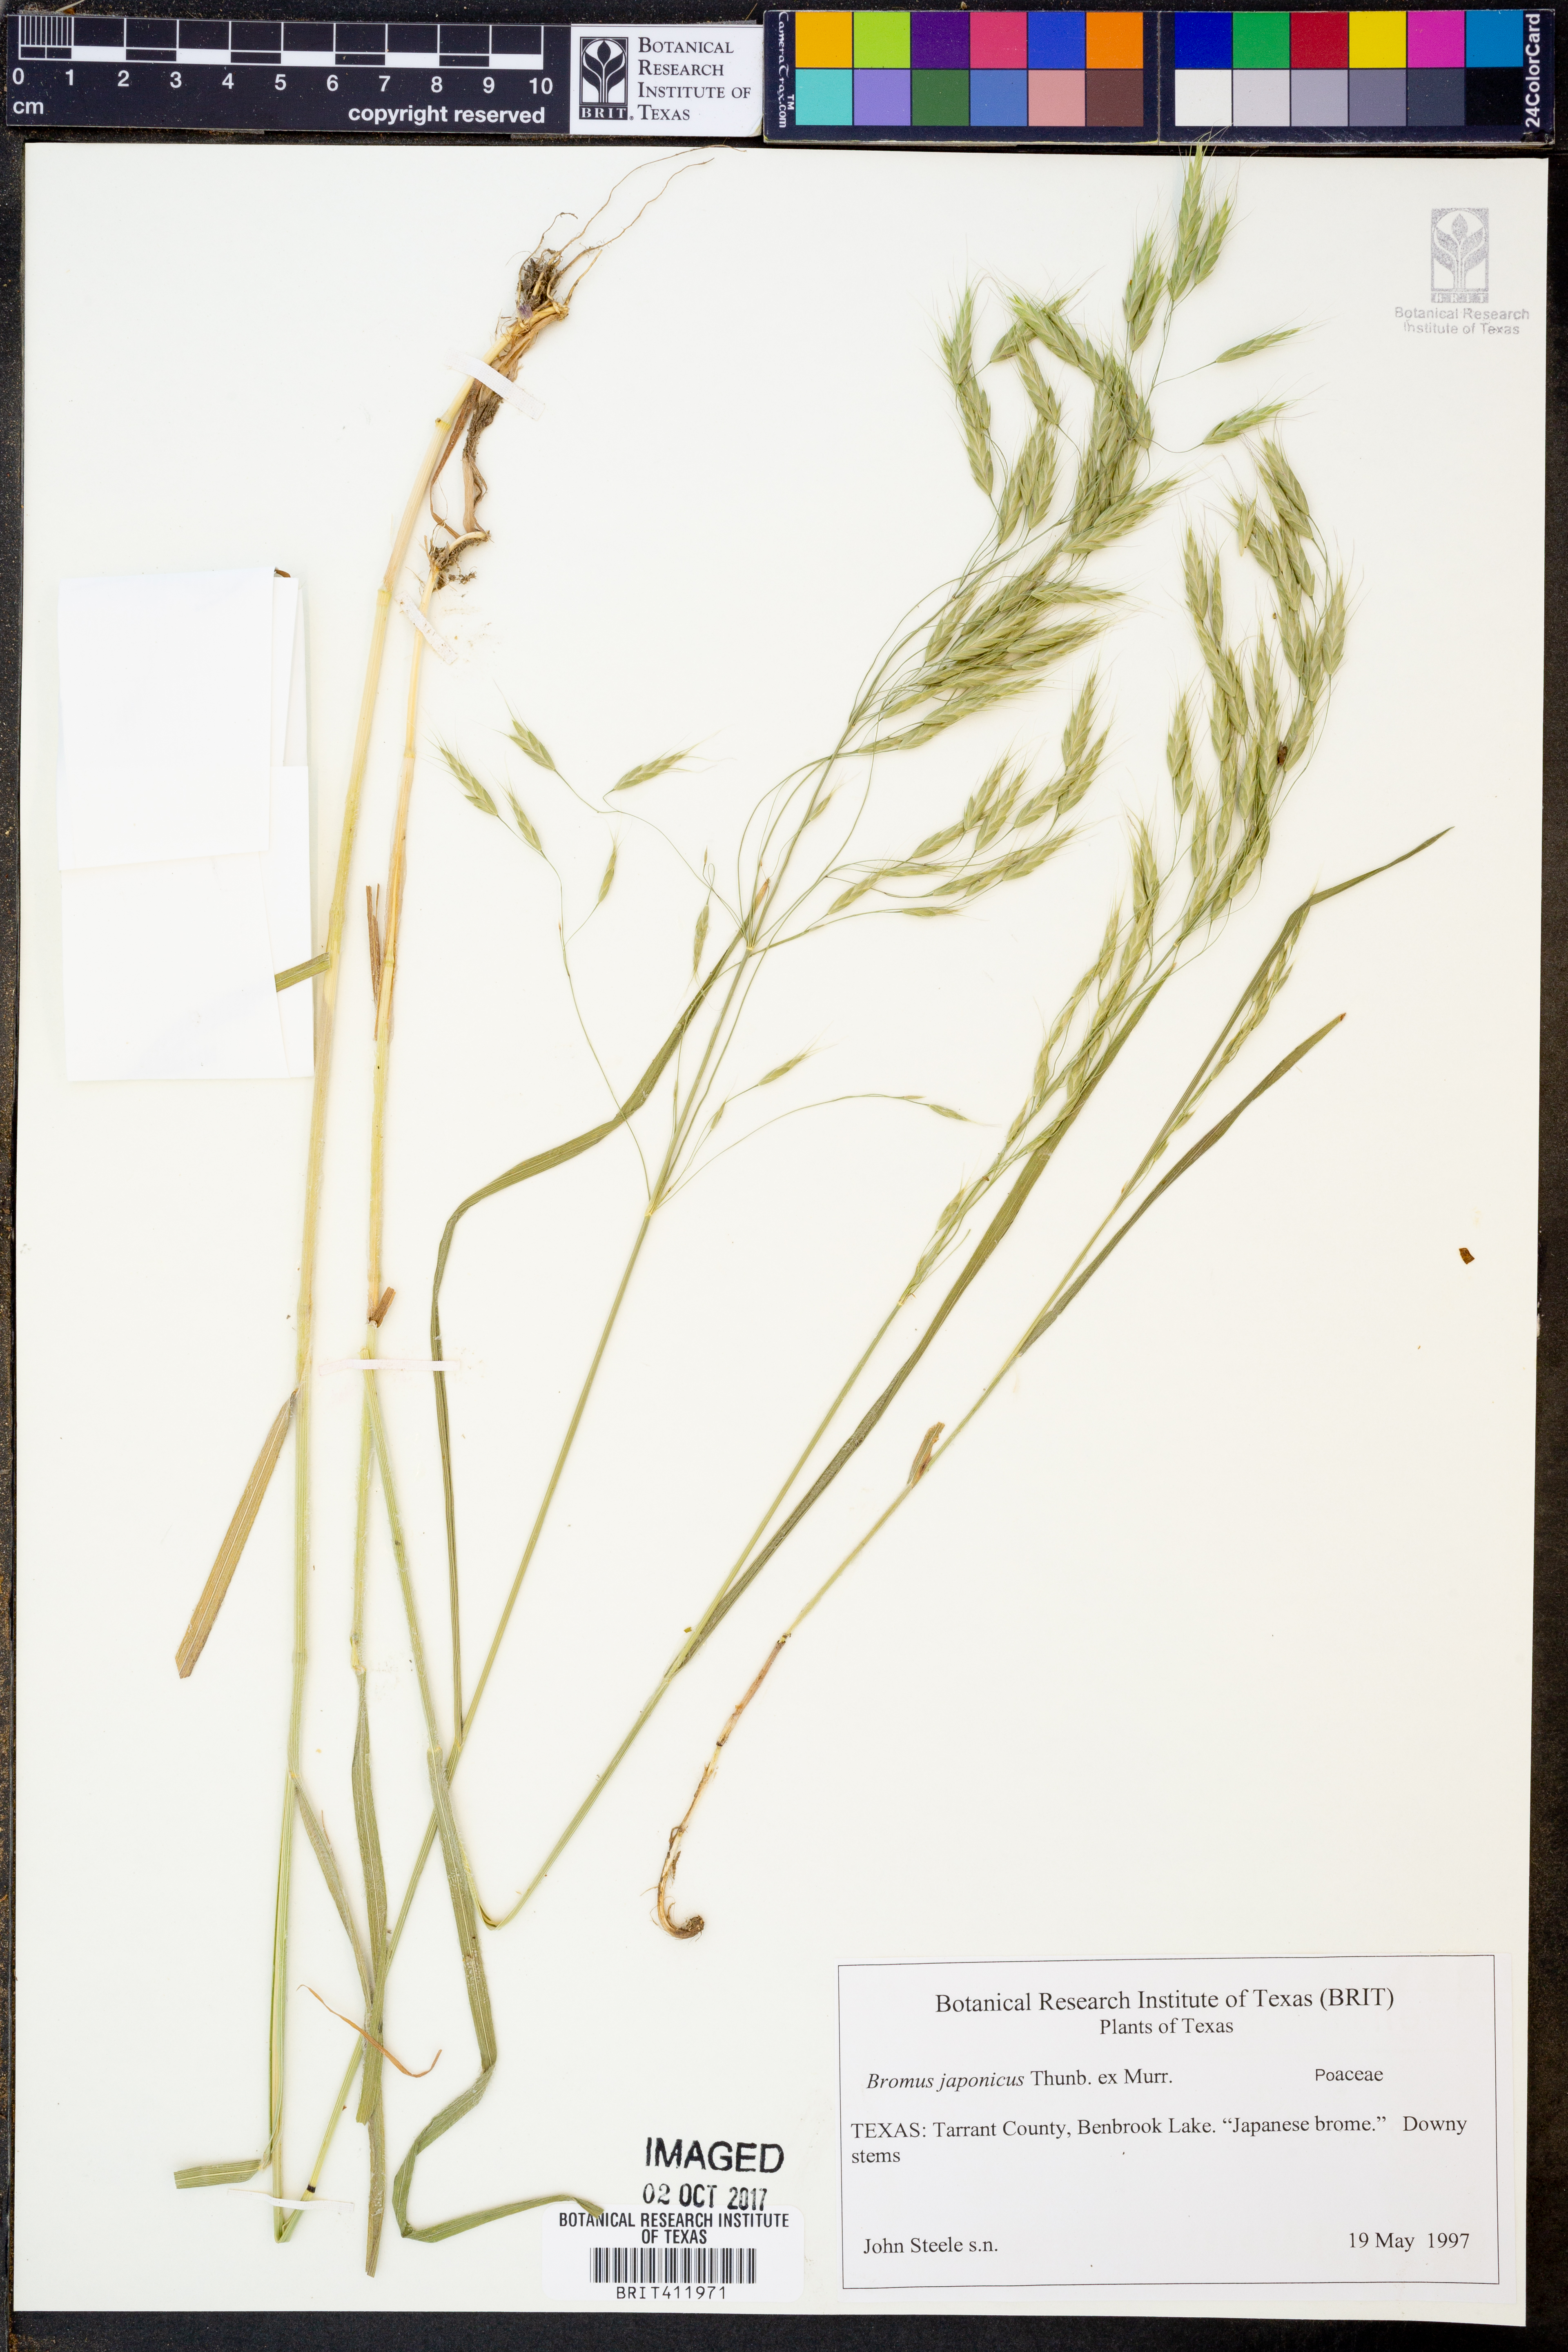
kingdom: Plantae
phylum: Tracheophyta
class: Liliopsida
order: Poales
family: Poaceae
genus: Bromus
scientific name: Bromus japonicus
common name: Japanese brome
